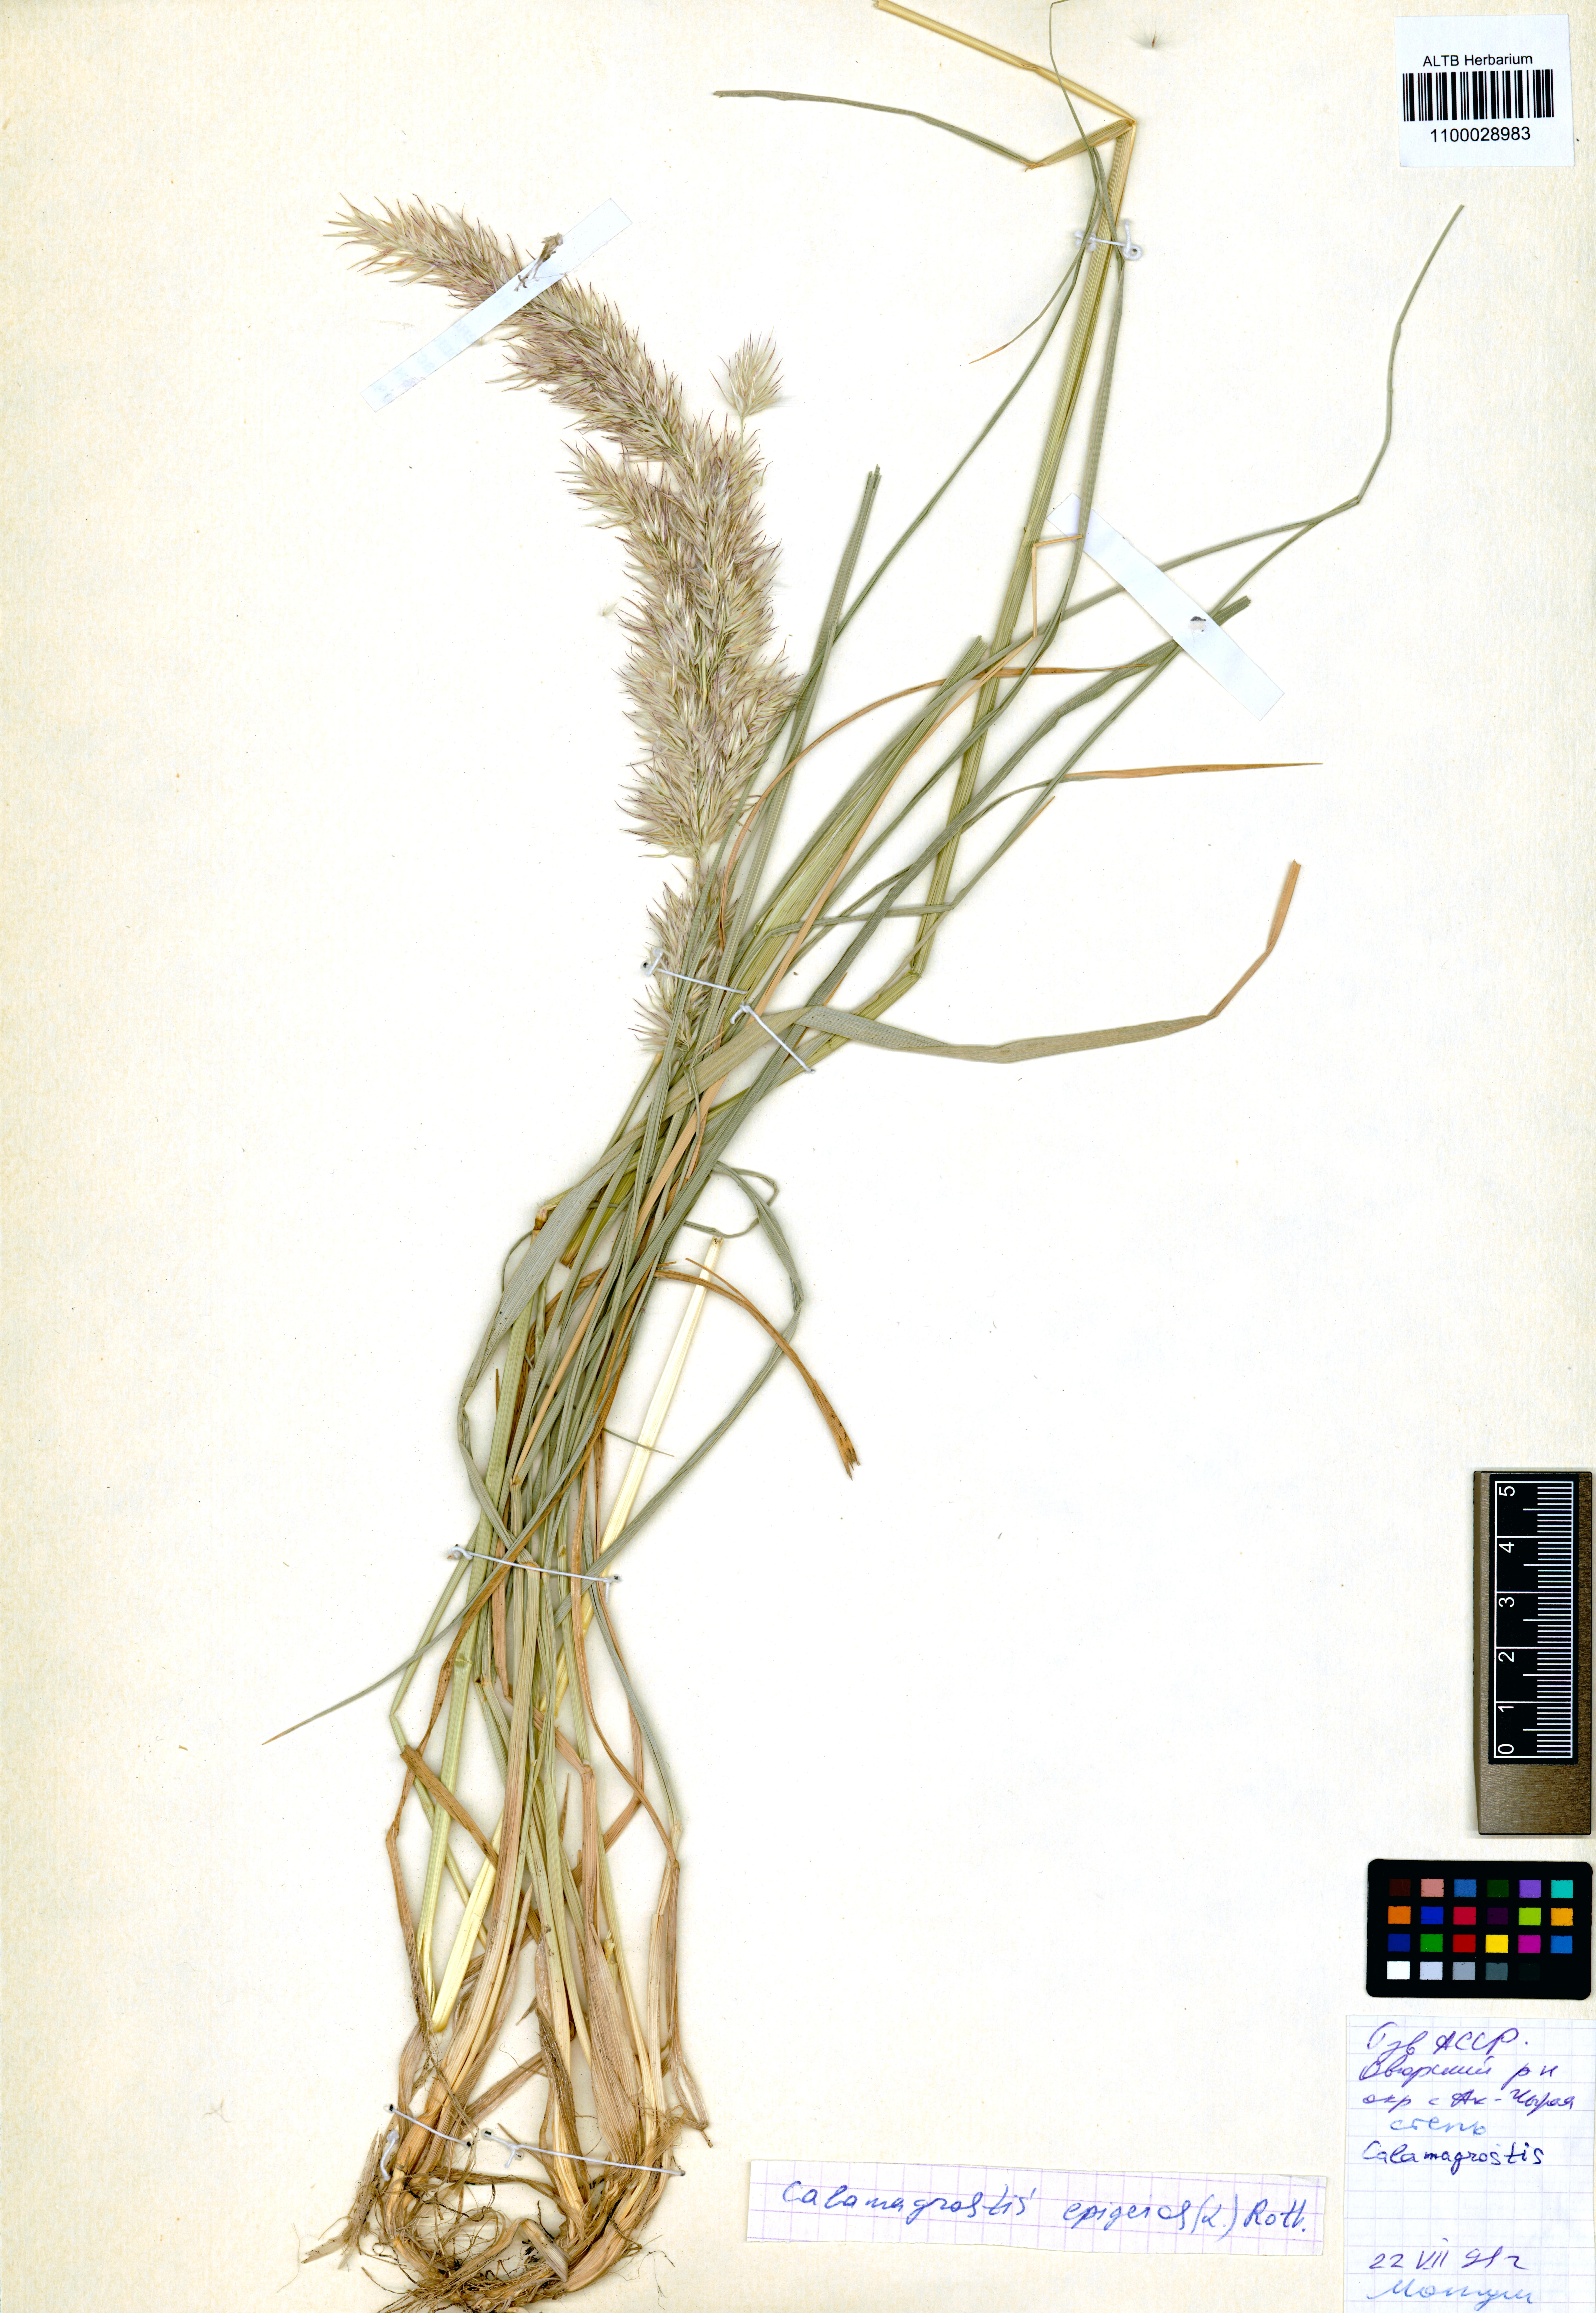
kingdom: Plantae
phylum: Tracheophyta
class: Liliopsida
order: Poales
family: Poaceae
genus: Calamagrostis
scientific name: Calamagrostis epigejos
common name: Wood small-reed
